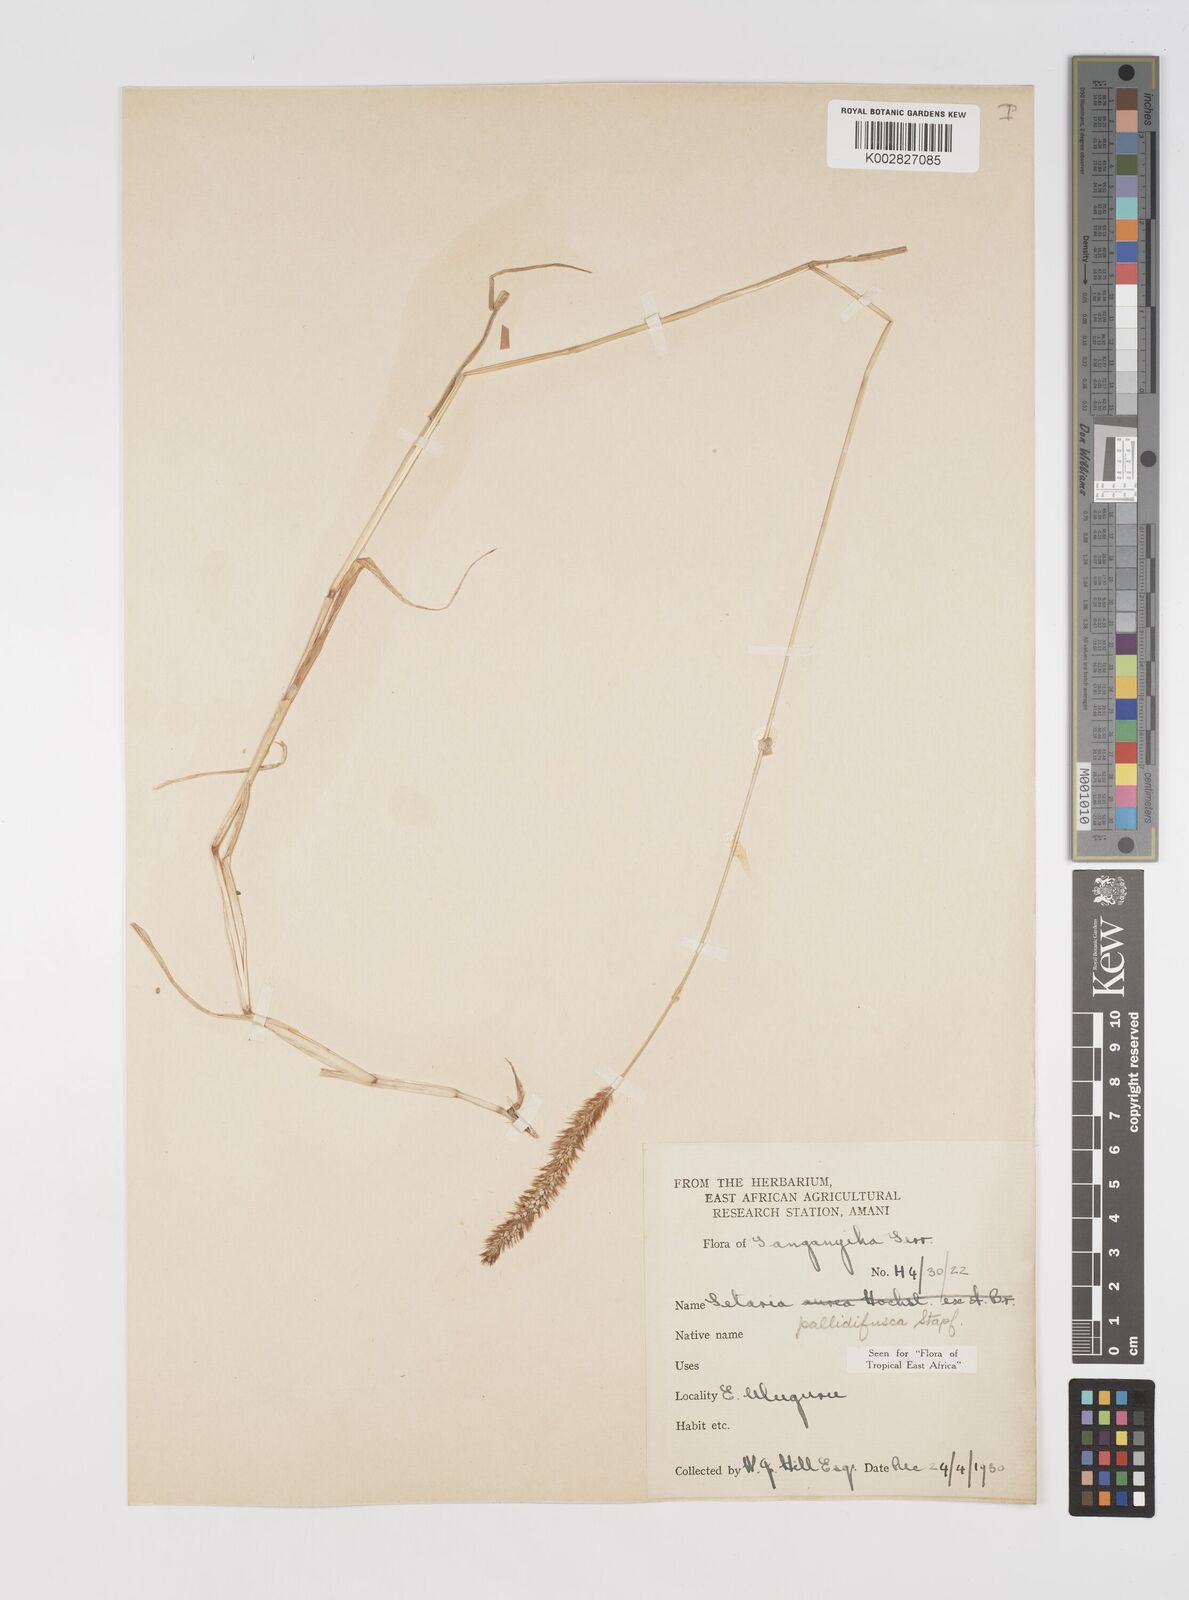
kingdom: Plantae
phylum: Tracheophyta
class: Liliopsida
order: Poales
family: Poaceae
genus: Setaria
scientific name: Setaria pumila
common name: Yellow bristle-grass
